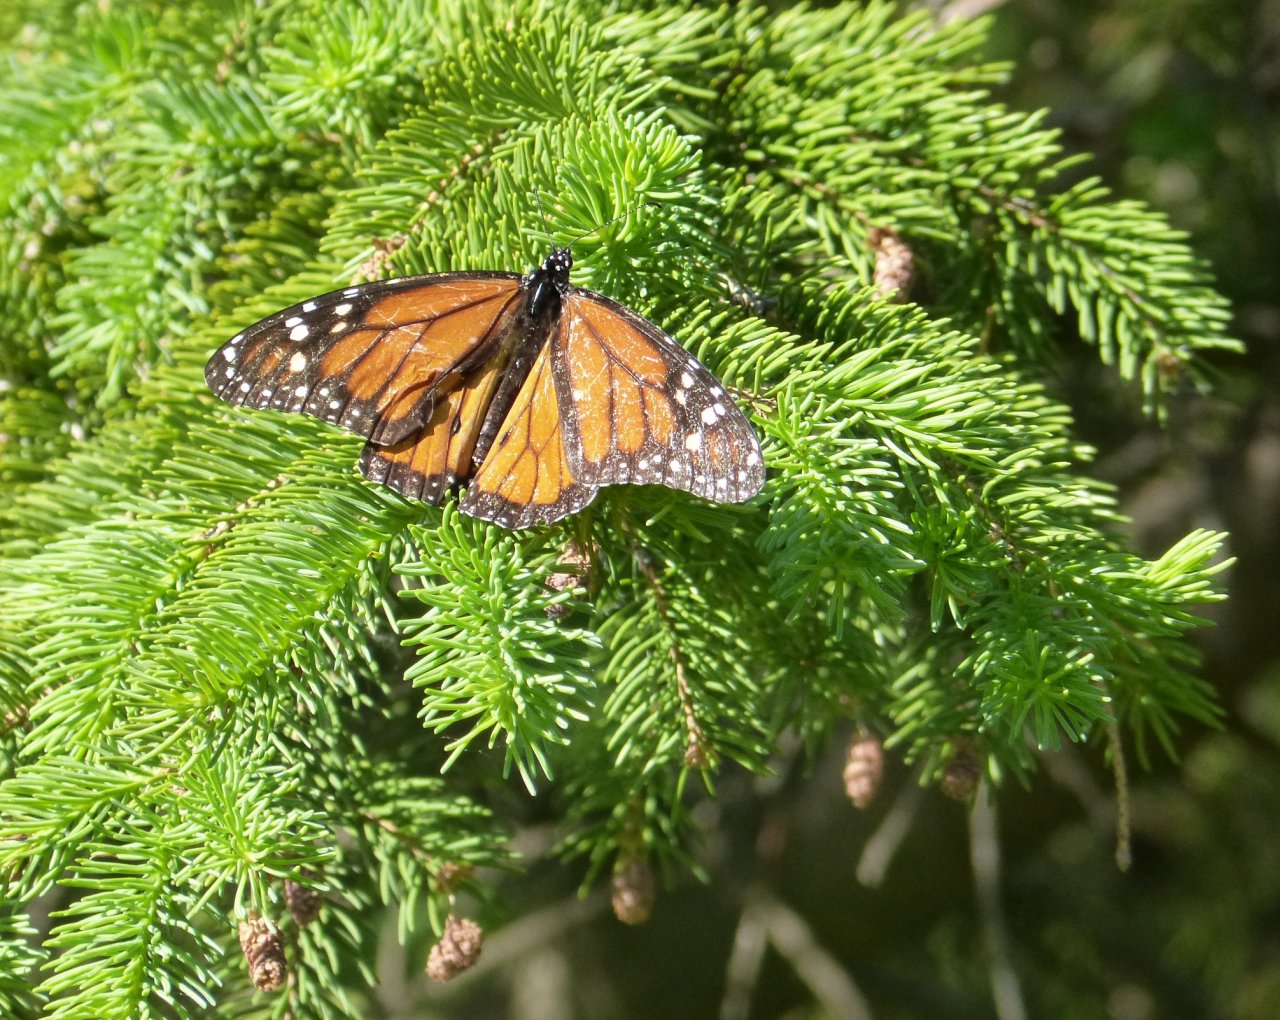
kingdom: Animalia
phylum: Arthropoda
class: Insecta
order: Lepidoptera
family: Nymphalidae
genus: Danaus
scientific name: Danaus plexippus
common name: Monarch
